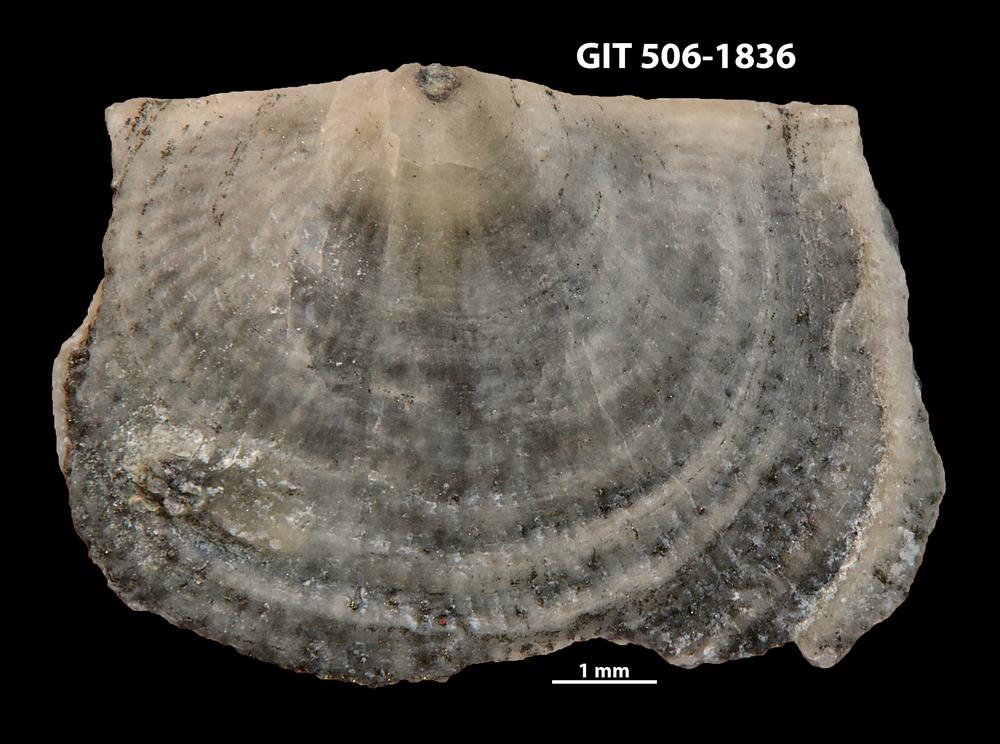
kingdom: Animalia
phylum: Brachiopoda
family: Strophomenidae
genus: Leptaena
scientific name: Leptaena purpurea
